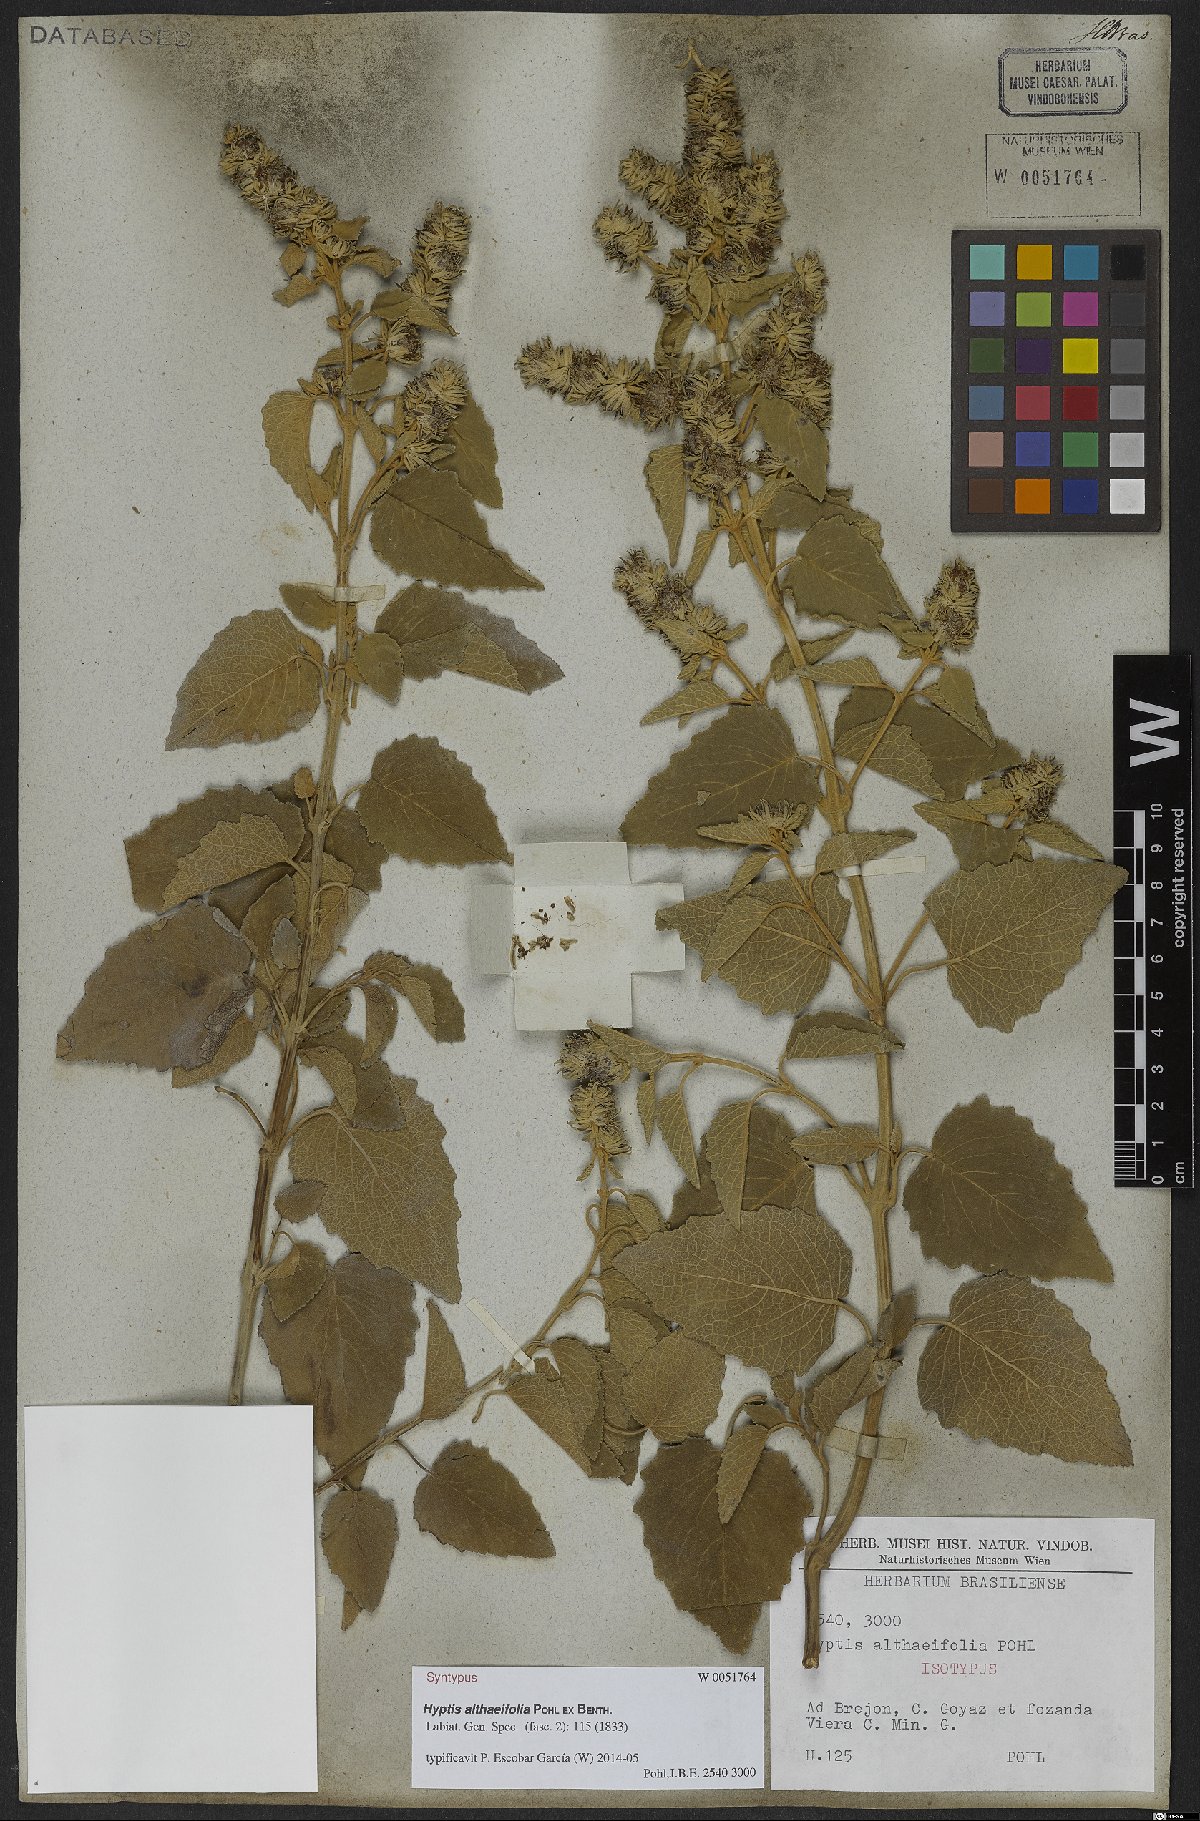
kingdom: Plantae
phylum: Tracheophyta
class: Magnoliopsida
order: Lamiales
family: Lamiaceae
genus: Cantinoa
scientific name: Cantinoa althaeifolia
